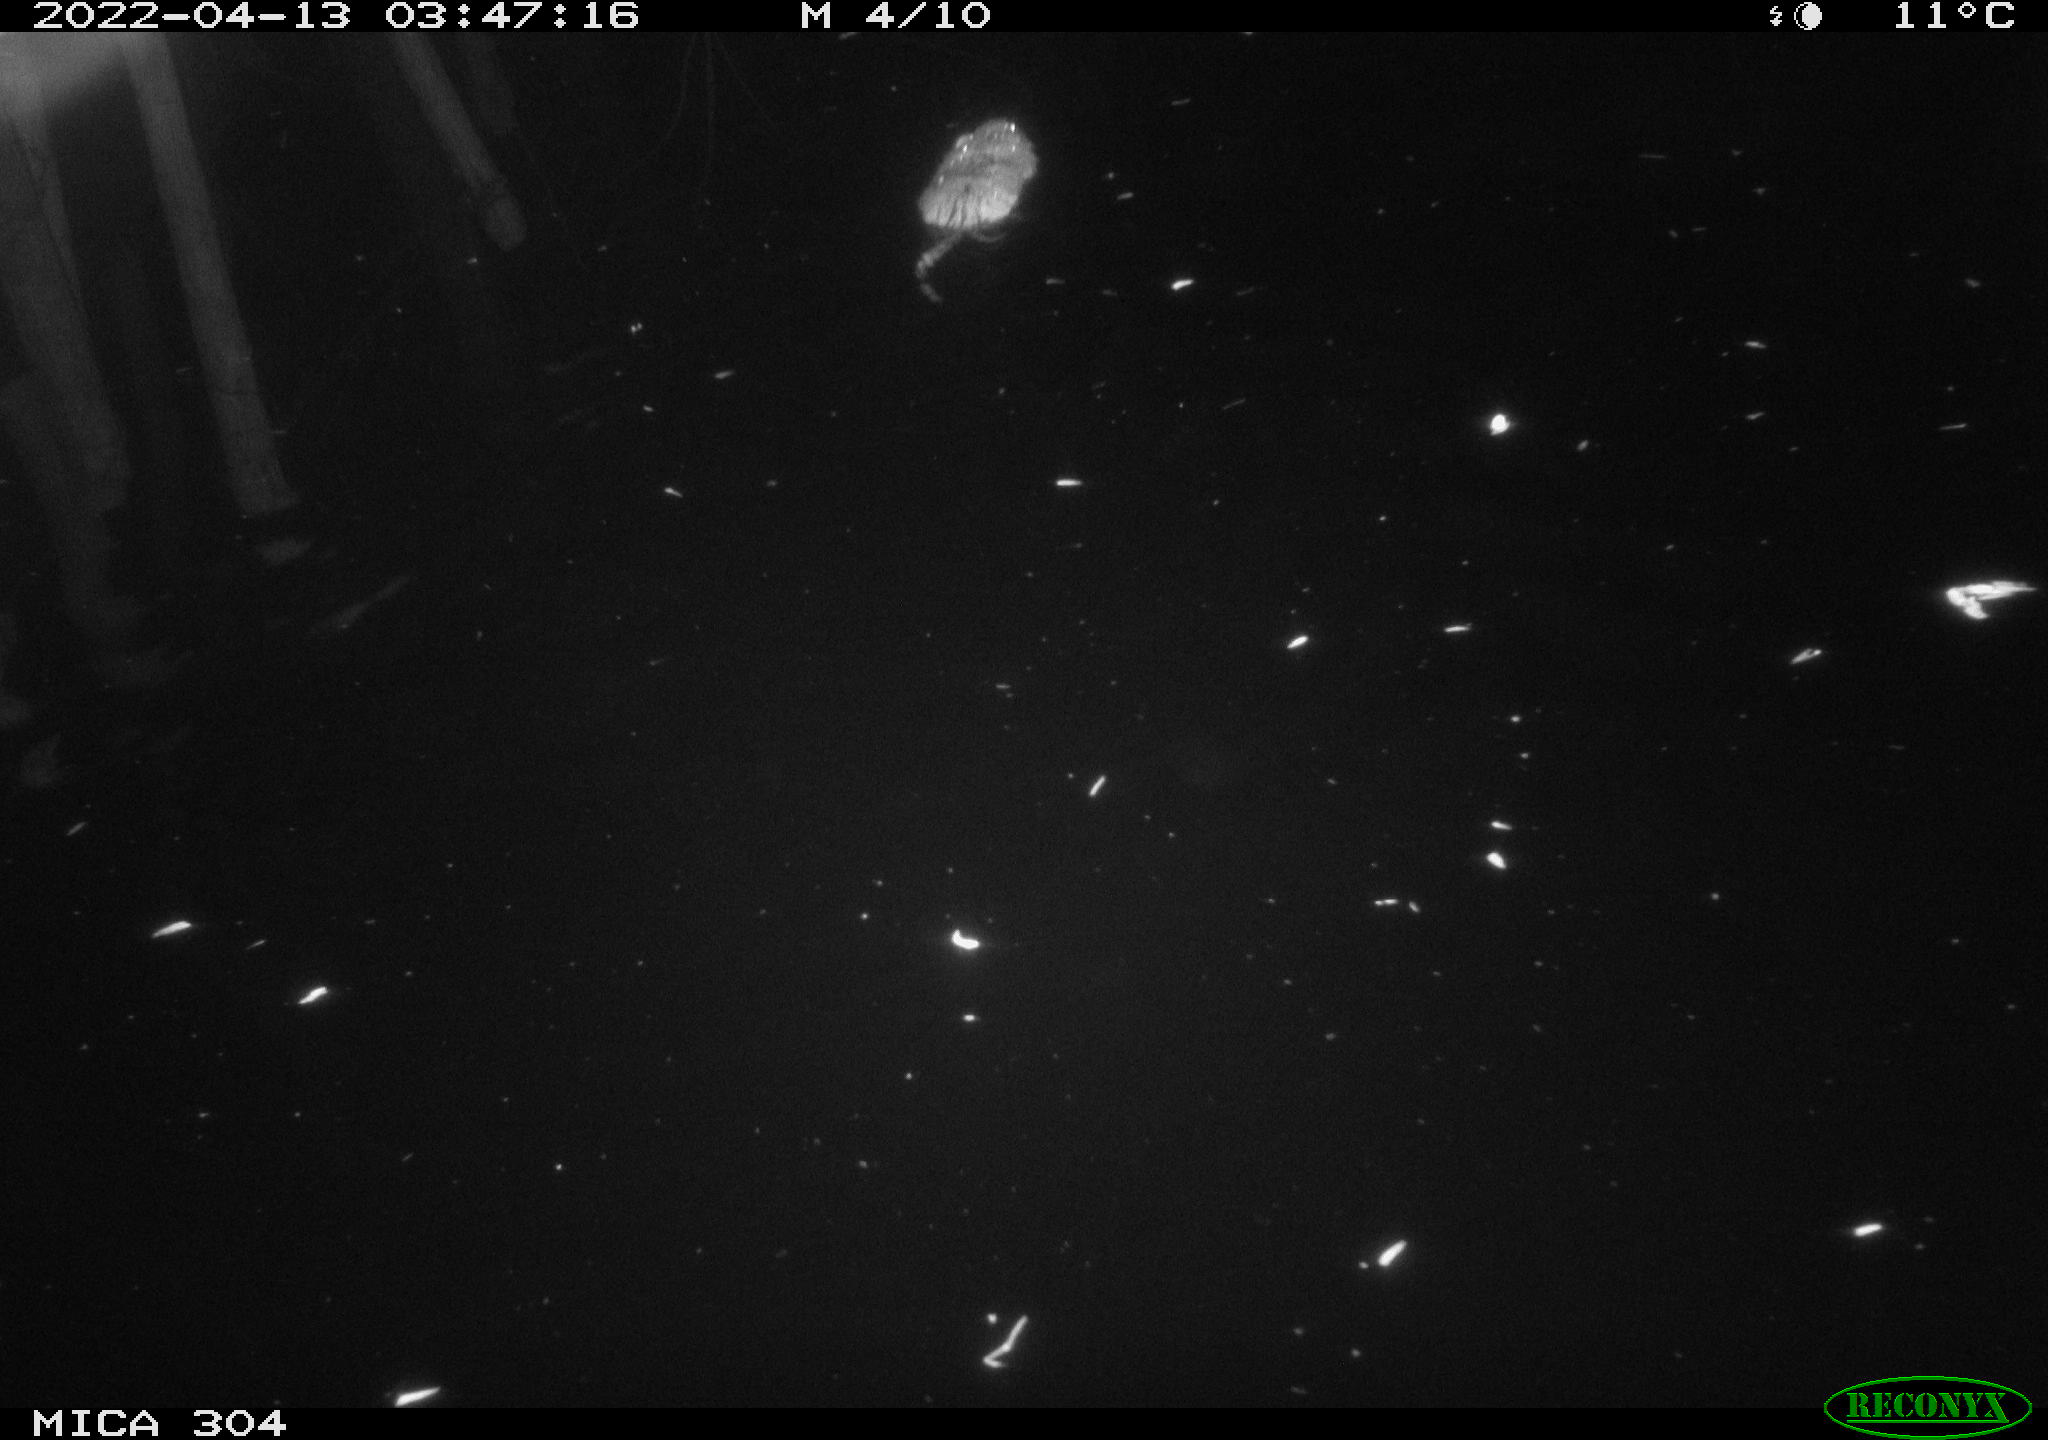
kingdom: Animalia
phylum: Chordata
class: Mammalia
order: Rodentia
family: Cricetidae
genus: Ondatra
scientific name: Ondatra zibethicus
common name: Muskrat
